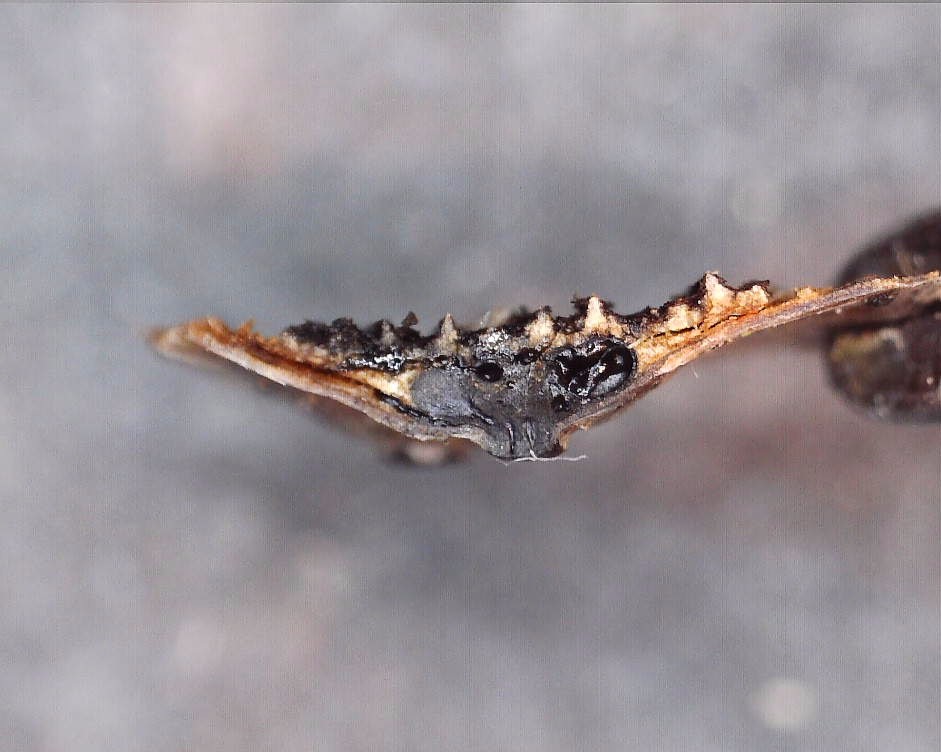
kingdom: Fungi
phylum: Ascomycota
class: Sordariomycetes
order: Xylariales
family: Lopadostomataceae
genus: Lopadostoma
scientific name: Lopadostoma
